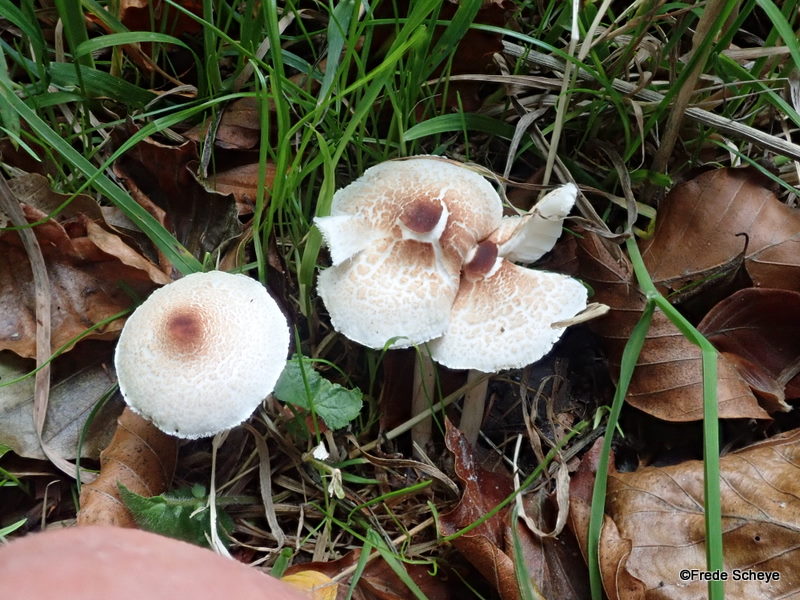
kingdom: Fungi
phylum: Basidiomycota
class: Agaricomycetes
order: Agaricales
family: Agaricaceae
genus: Lepiota
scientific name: Lepiota cristata
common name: stinkende parasolhat
